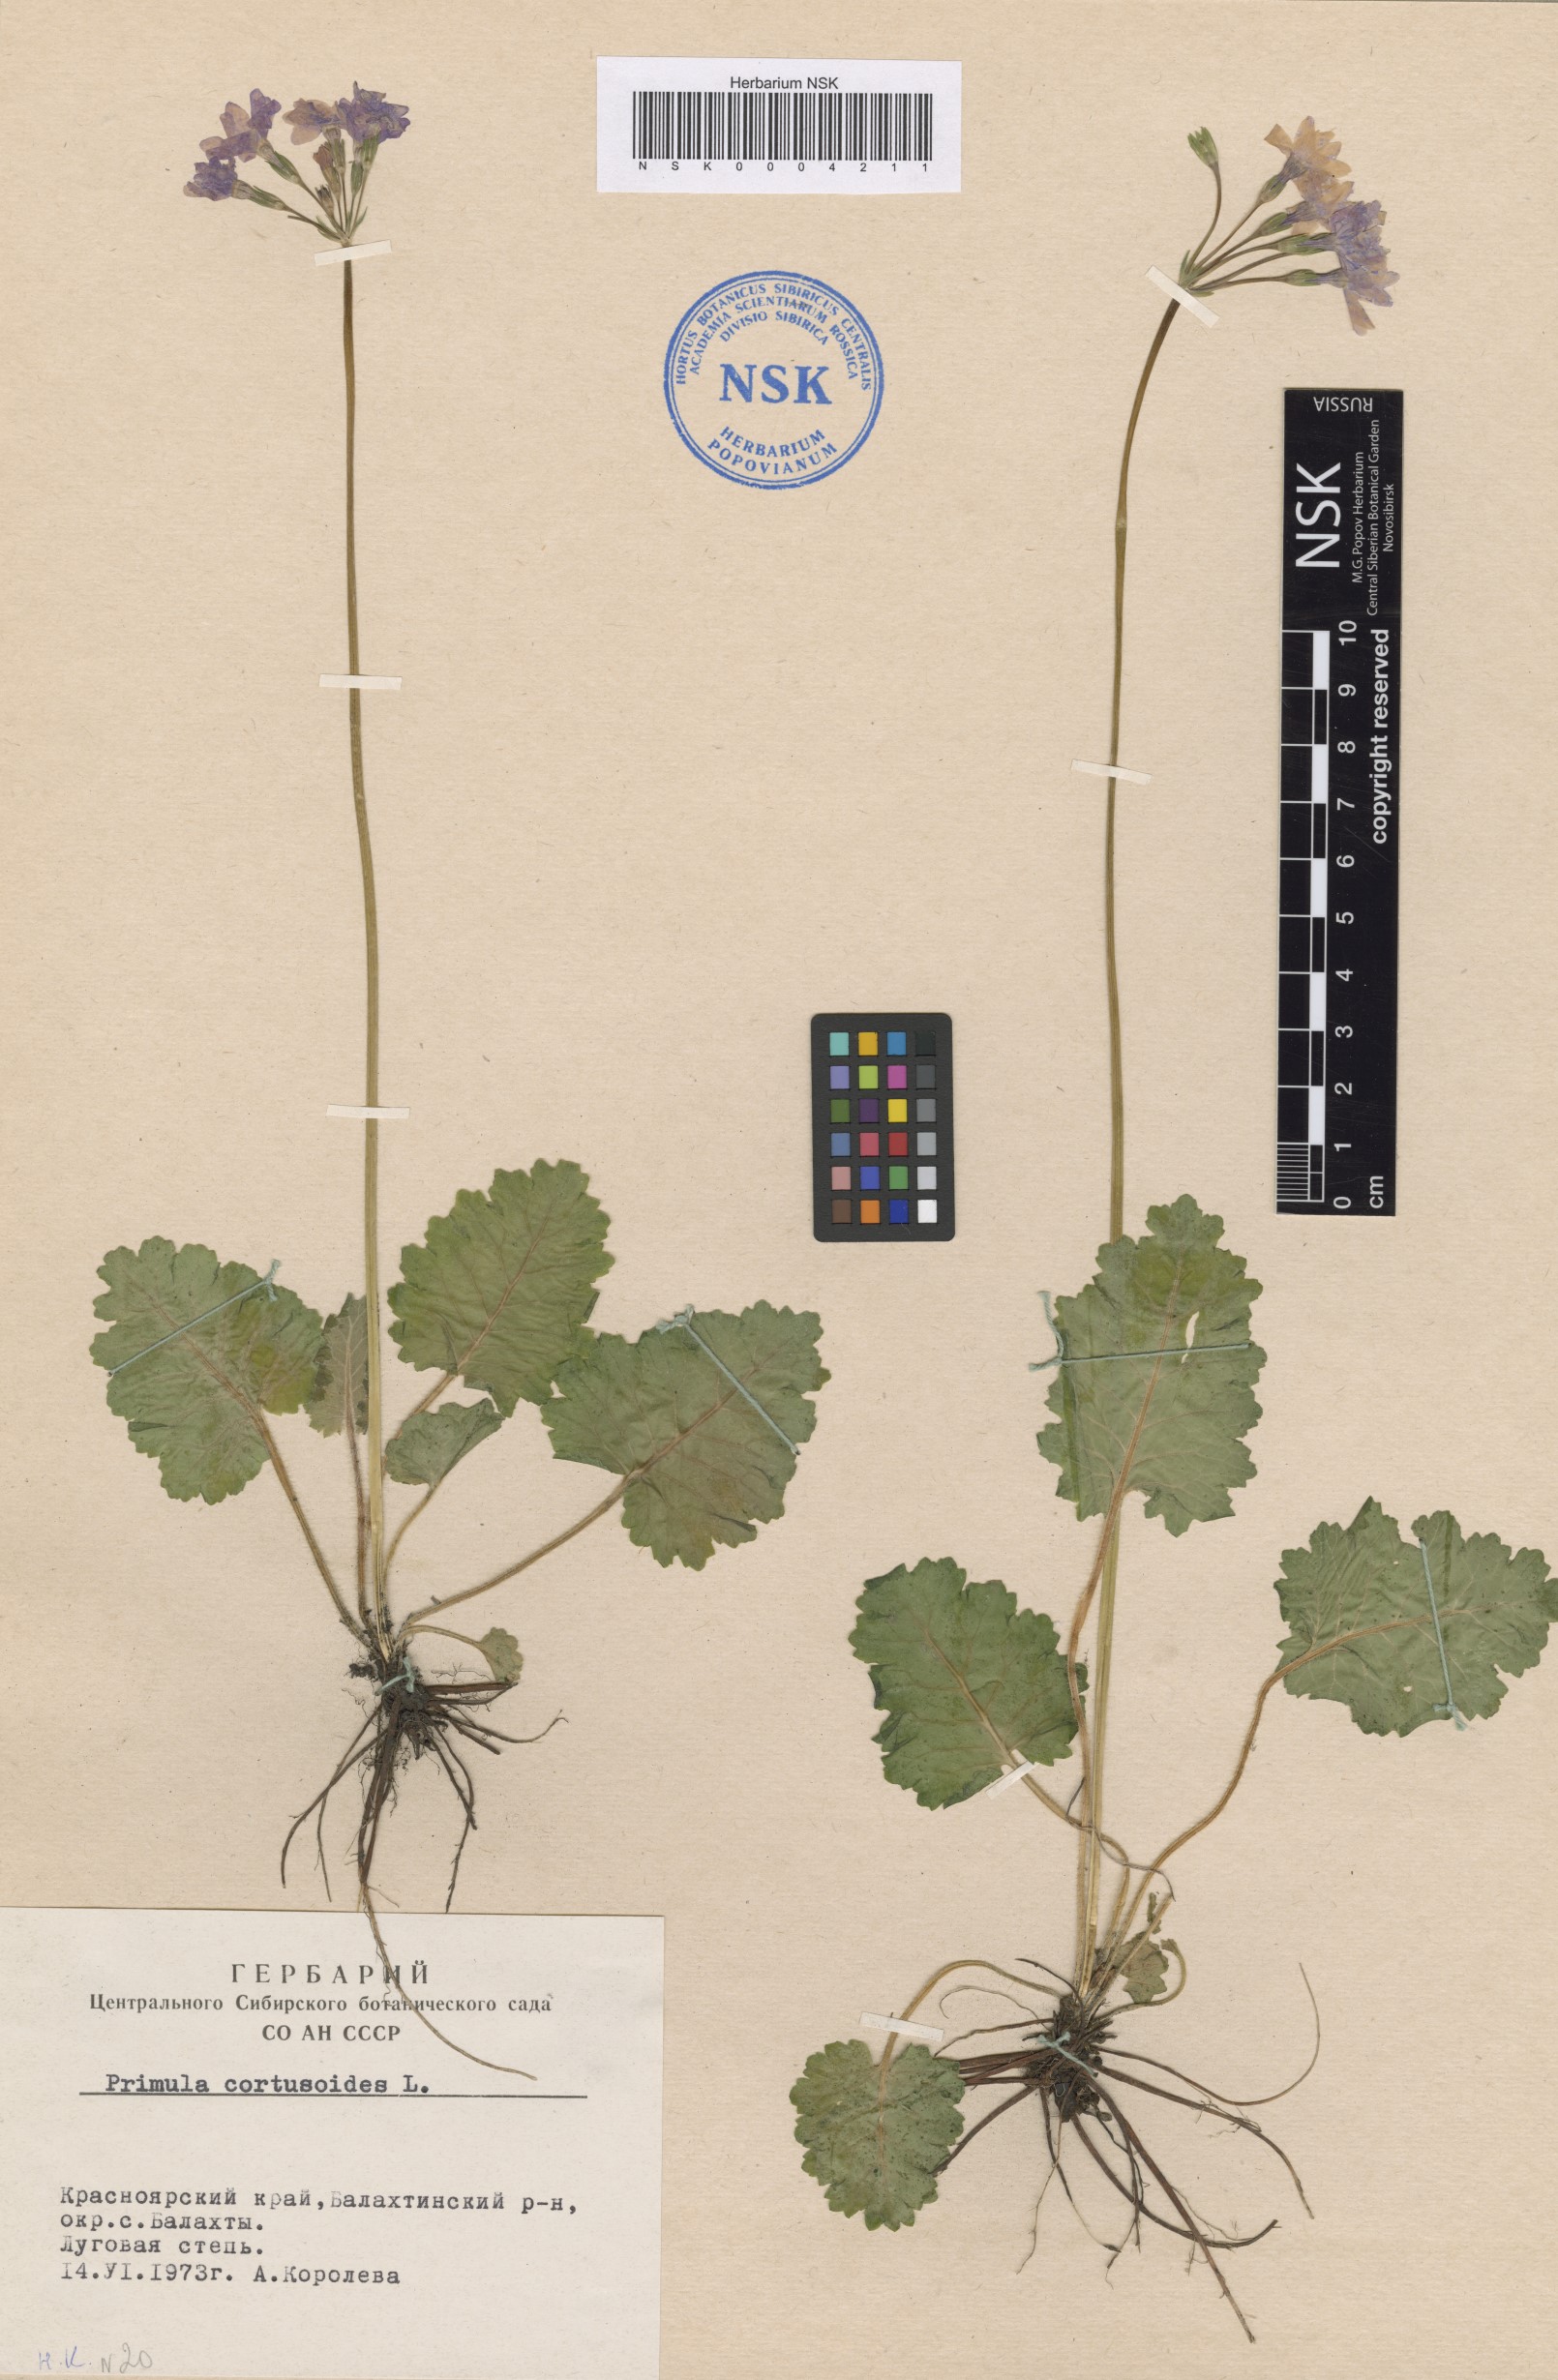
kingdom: Plantae
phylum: Tracheophyta
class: Magnoliopsida
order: Ericales
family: Primulaceae
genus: Primula
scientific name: Primula cortusoides
